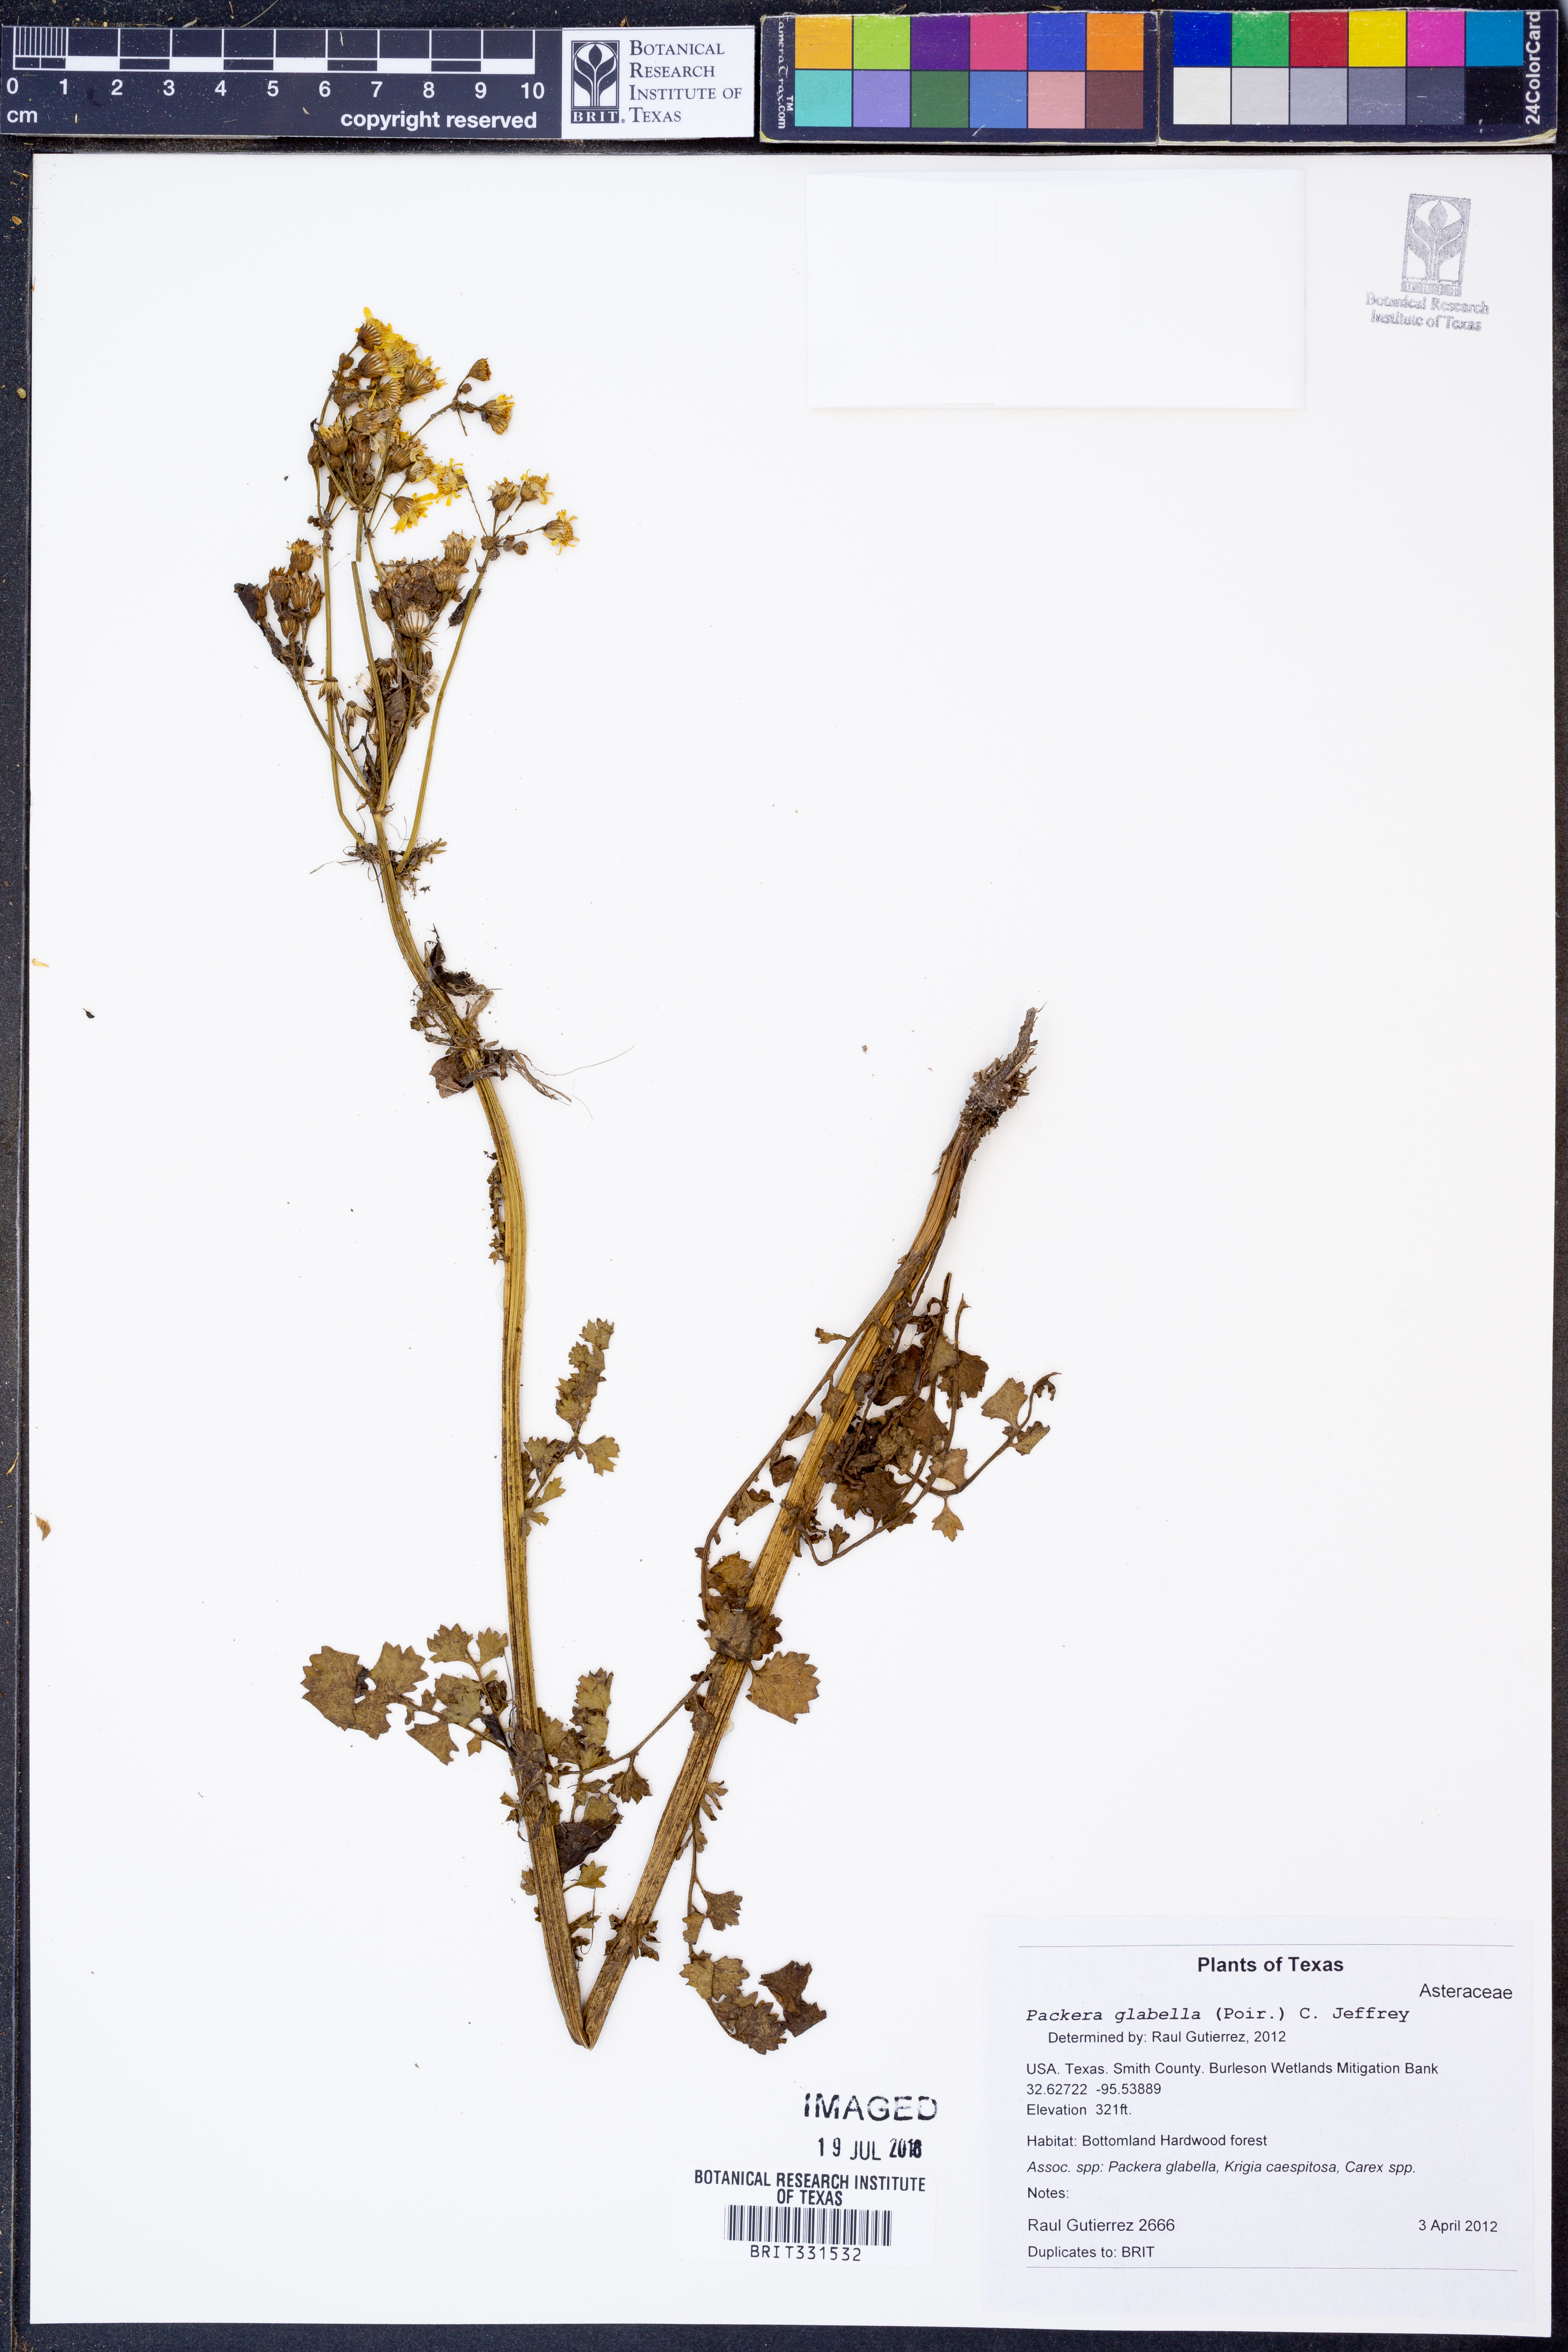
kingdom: Plantae
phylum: Tracheophyta
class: Magnoliopsida
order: Asterales
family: Asteraceae
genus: Packera
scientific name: Packera glabella
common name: Butterweed
